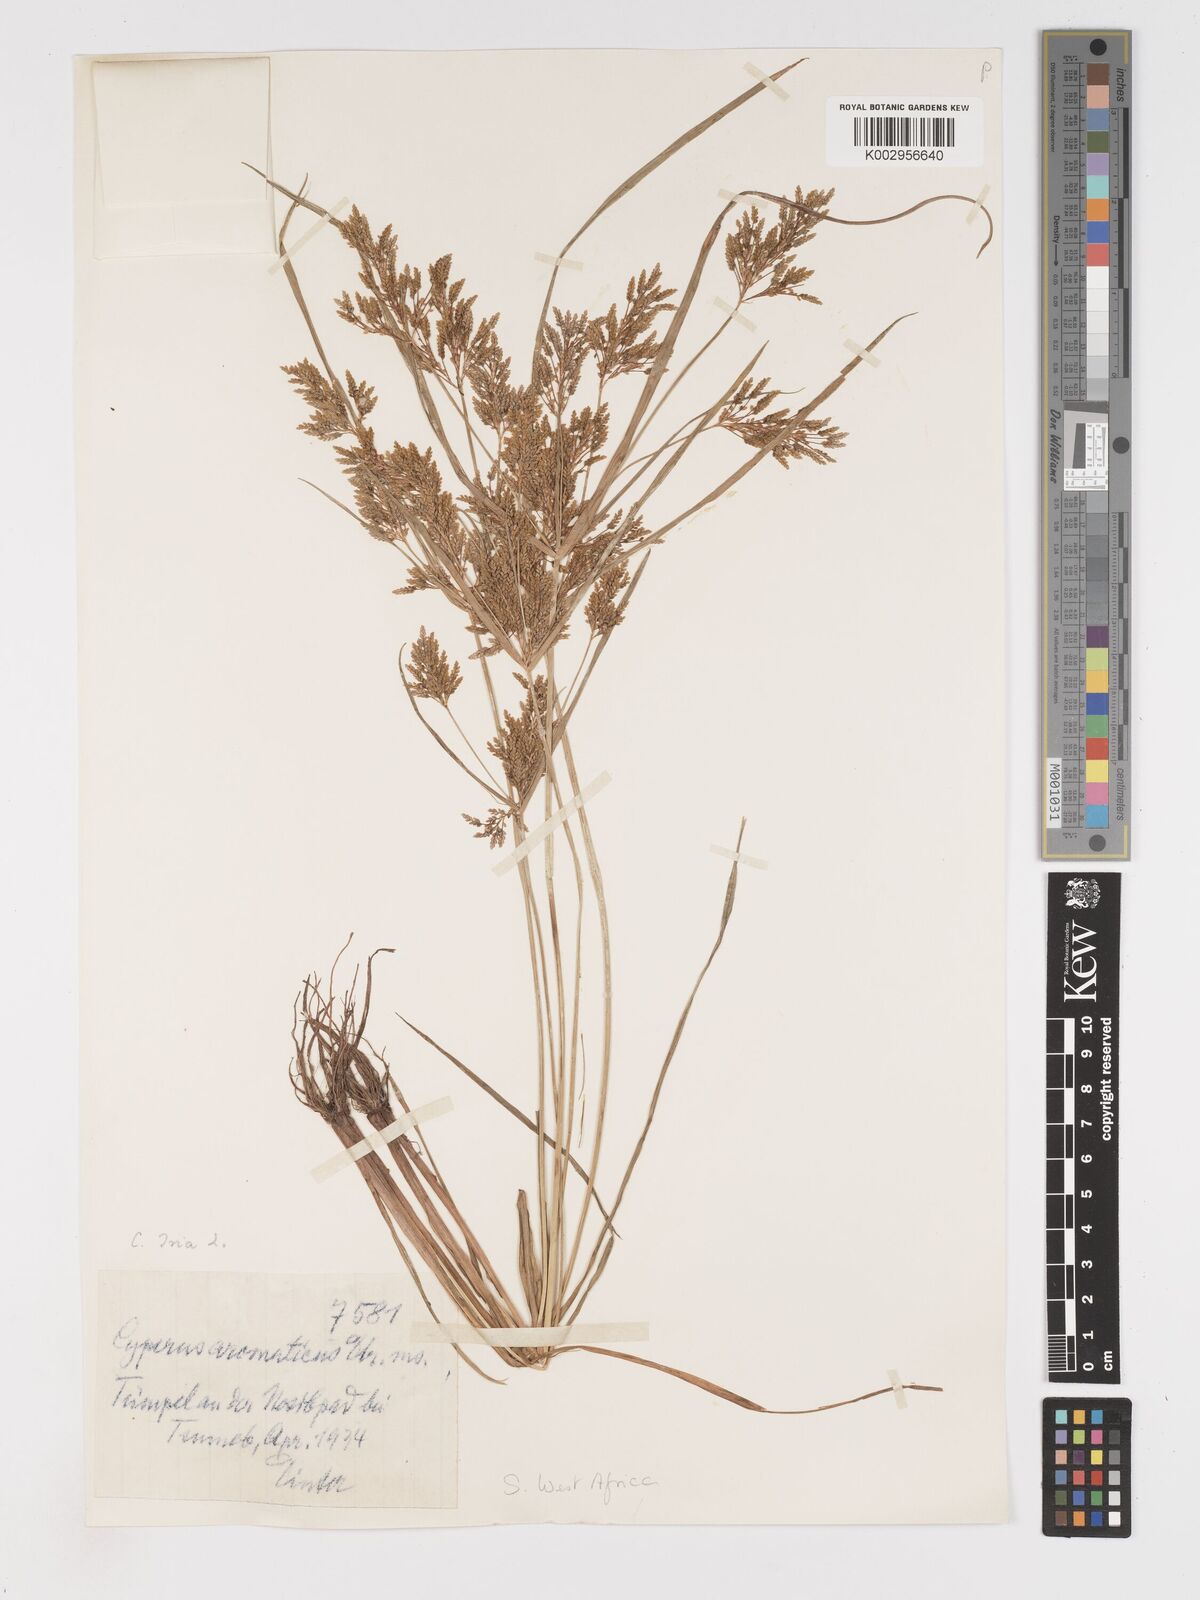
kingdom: Plantae
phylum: Tracheophyta
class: Liliopsida
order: Poales
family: Cyperaceae
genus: Cyperus
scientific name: Cyperus iria
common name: Ricefield flatsedge
